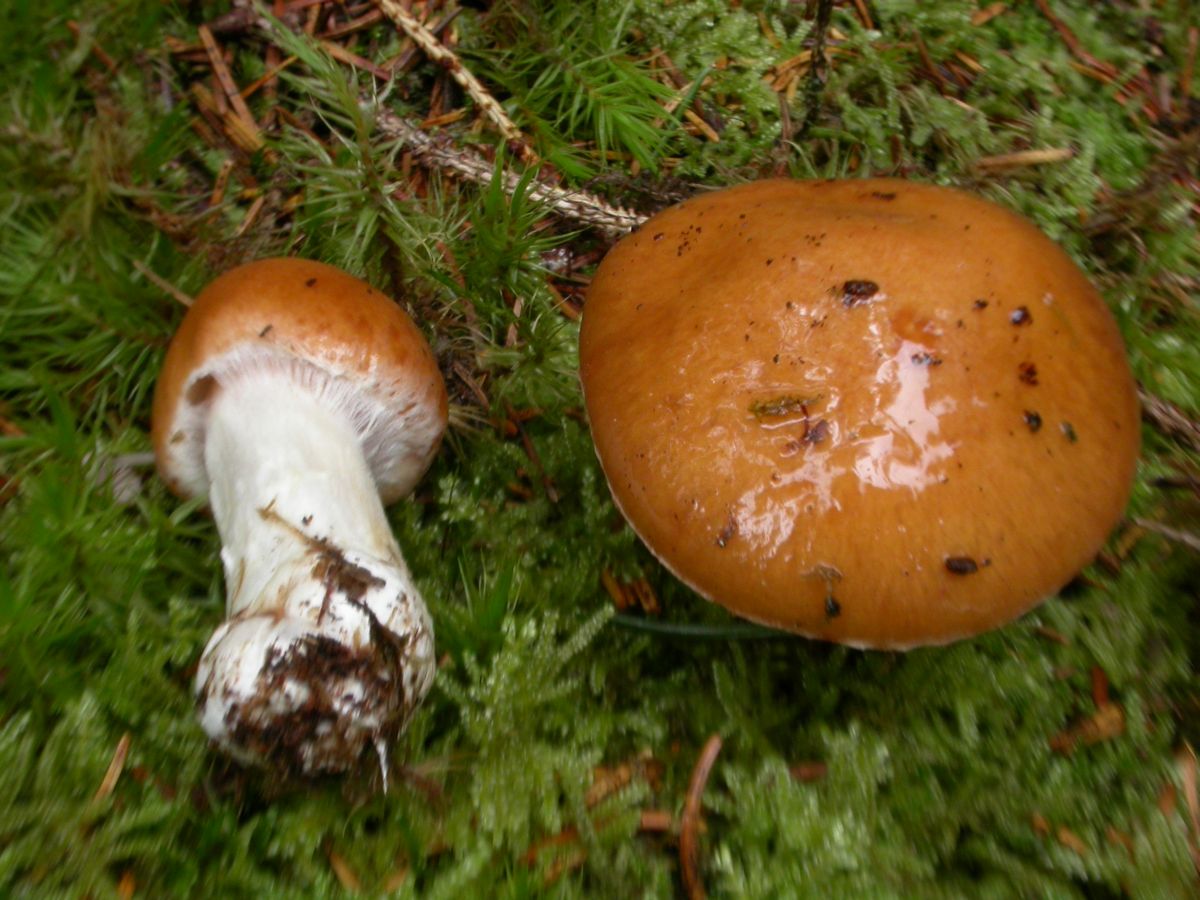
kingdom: Fungi
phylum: Basidiomycota
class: Agaricomycetes
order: Agaricales
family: Cortinariaceae
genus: Thaxterogaster
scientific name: Thaxterogaster multiformis
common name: honning-slørhat
